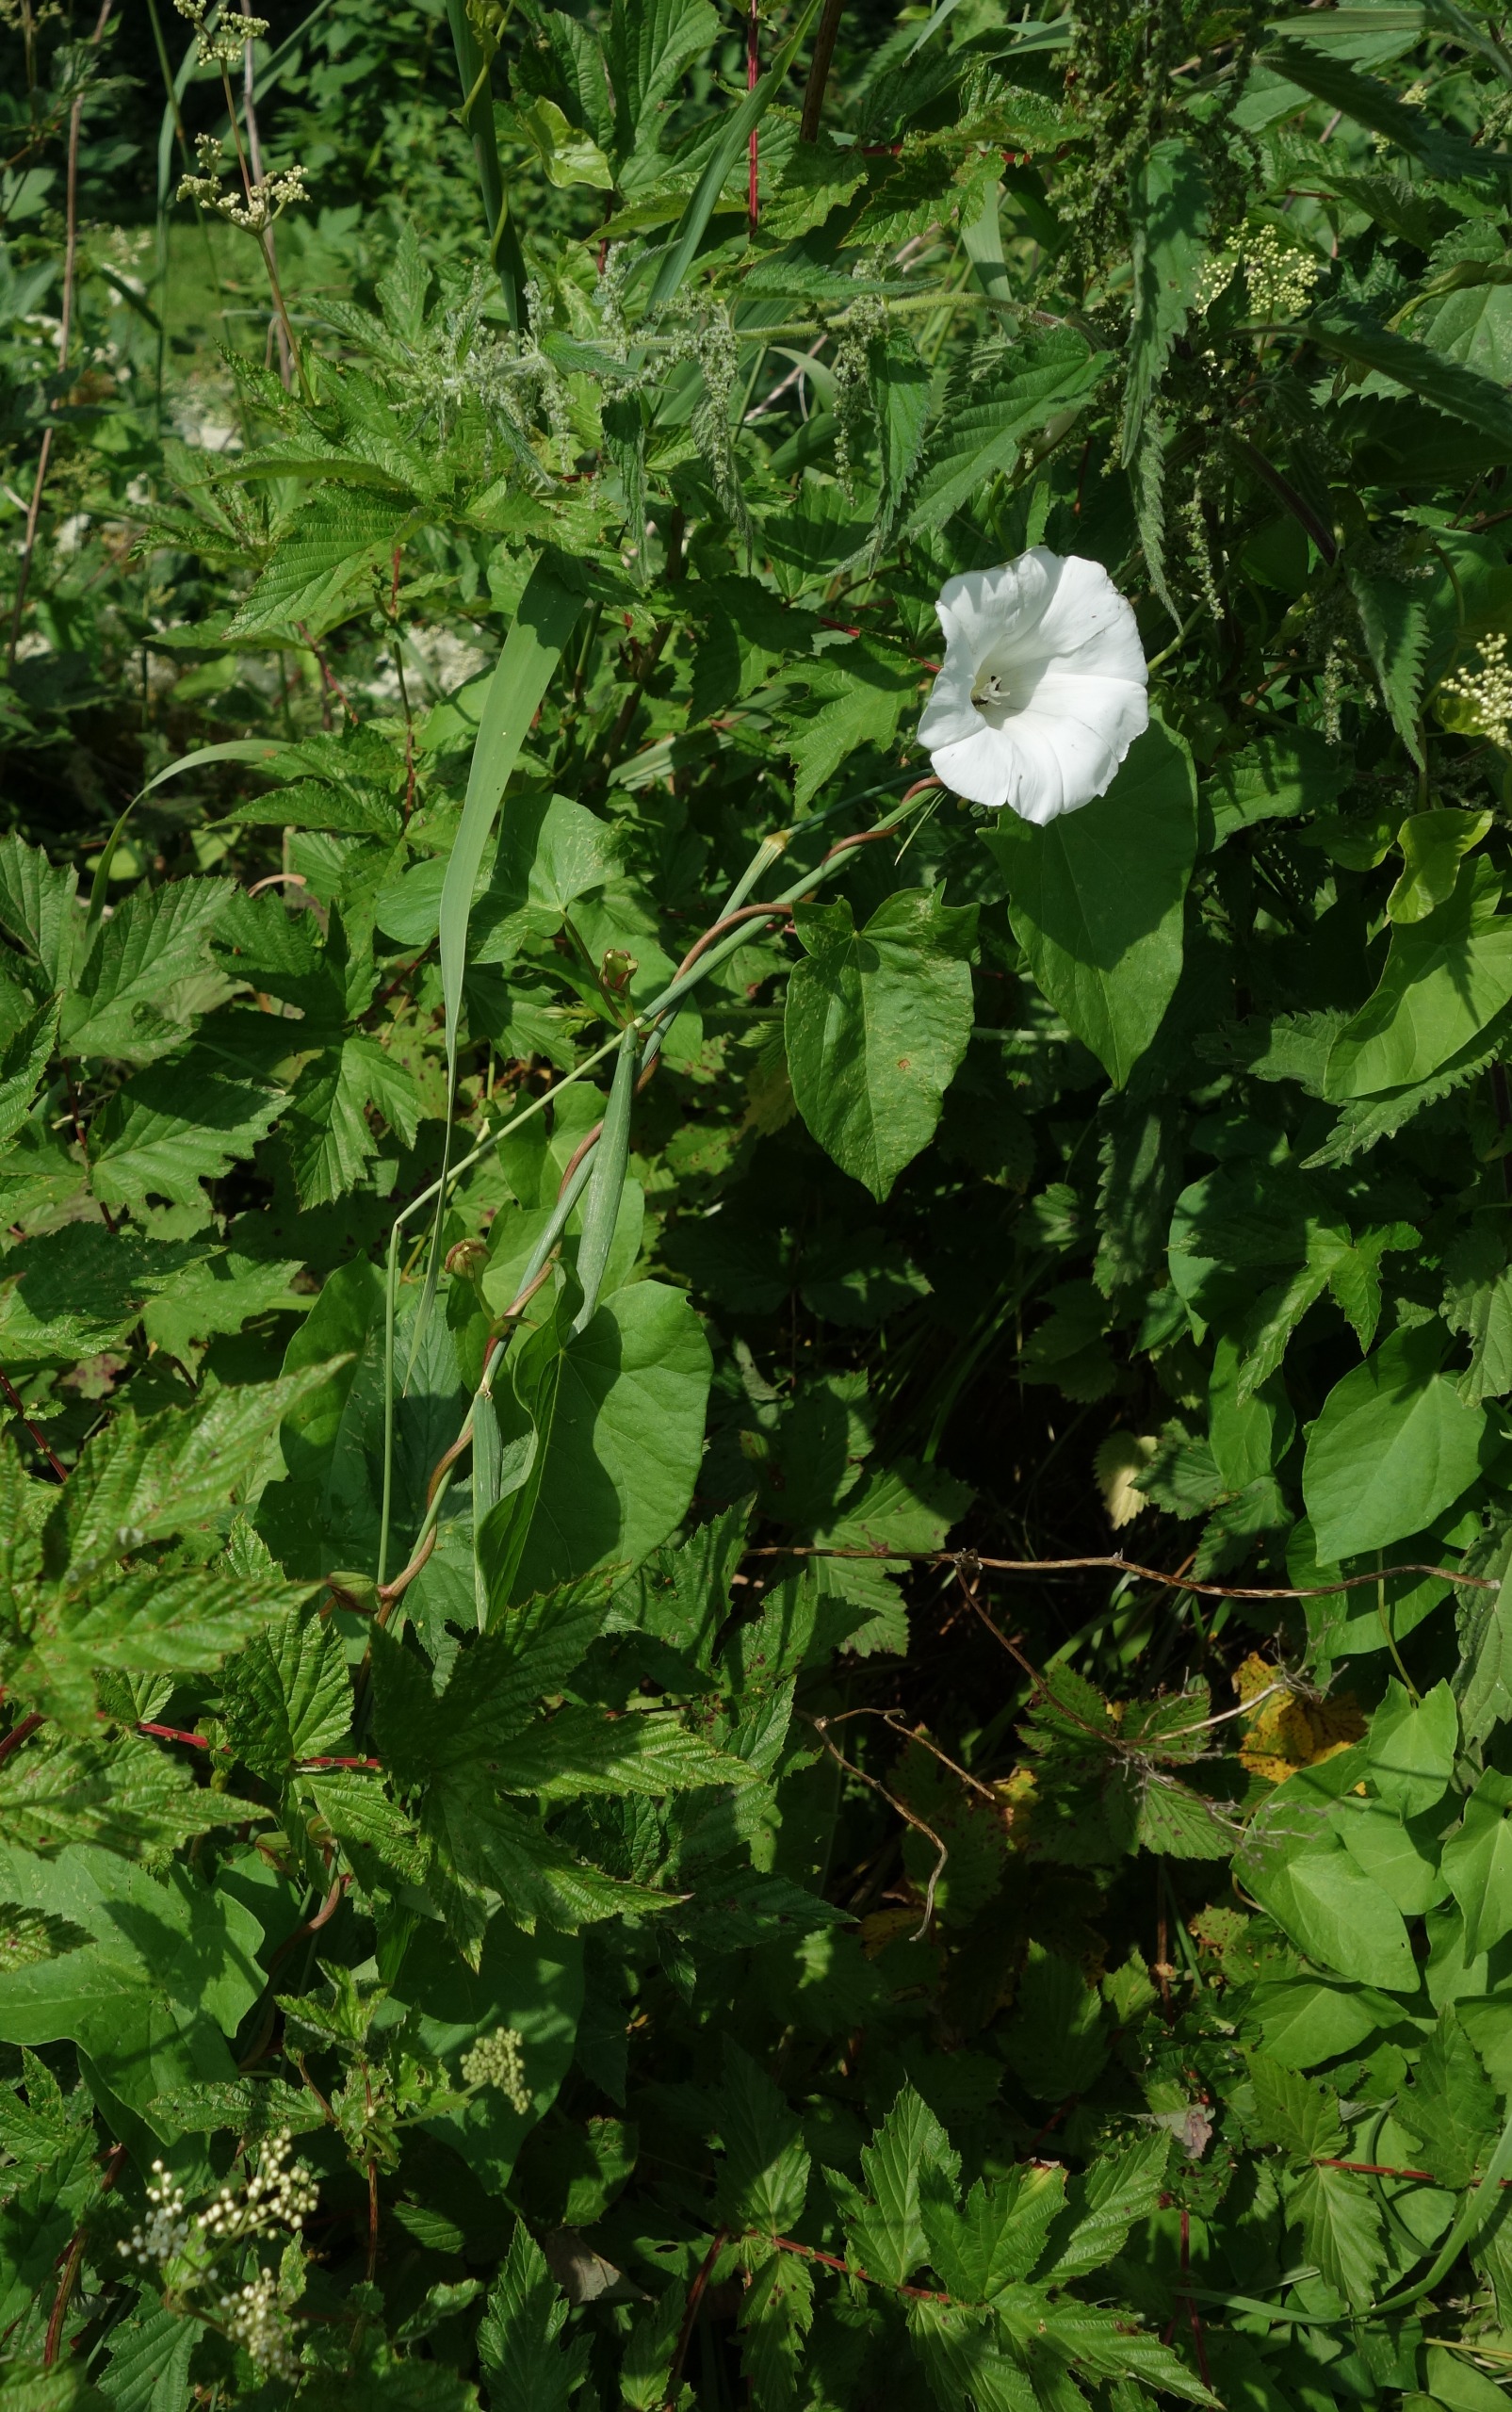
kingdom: Plantae
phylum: Tracheophyta
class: Magnoliopsida
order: Solanales
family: Convolvulaceae
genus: Calystegia
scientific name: Calystegia sepium
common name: Gærde-snerle
